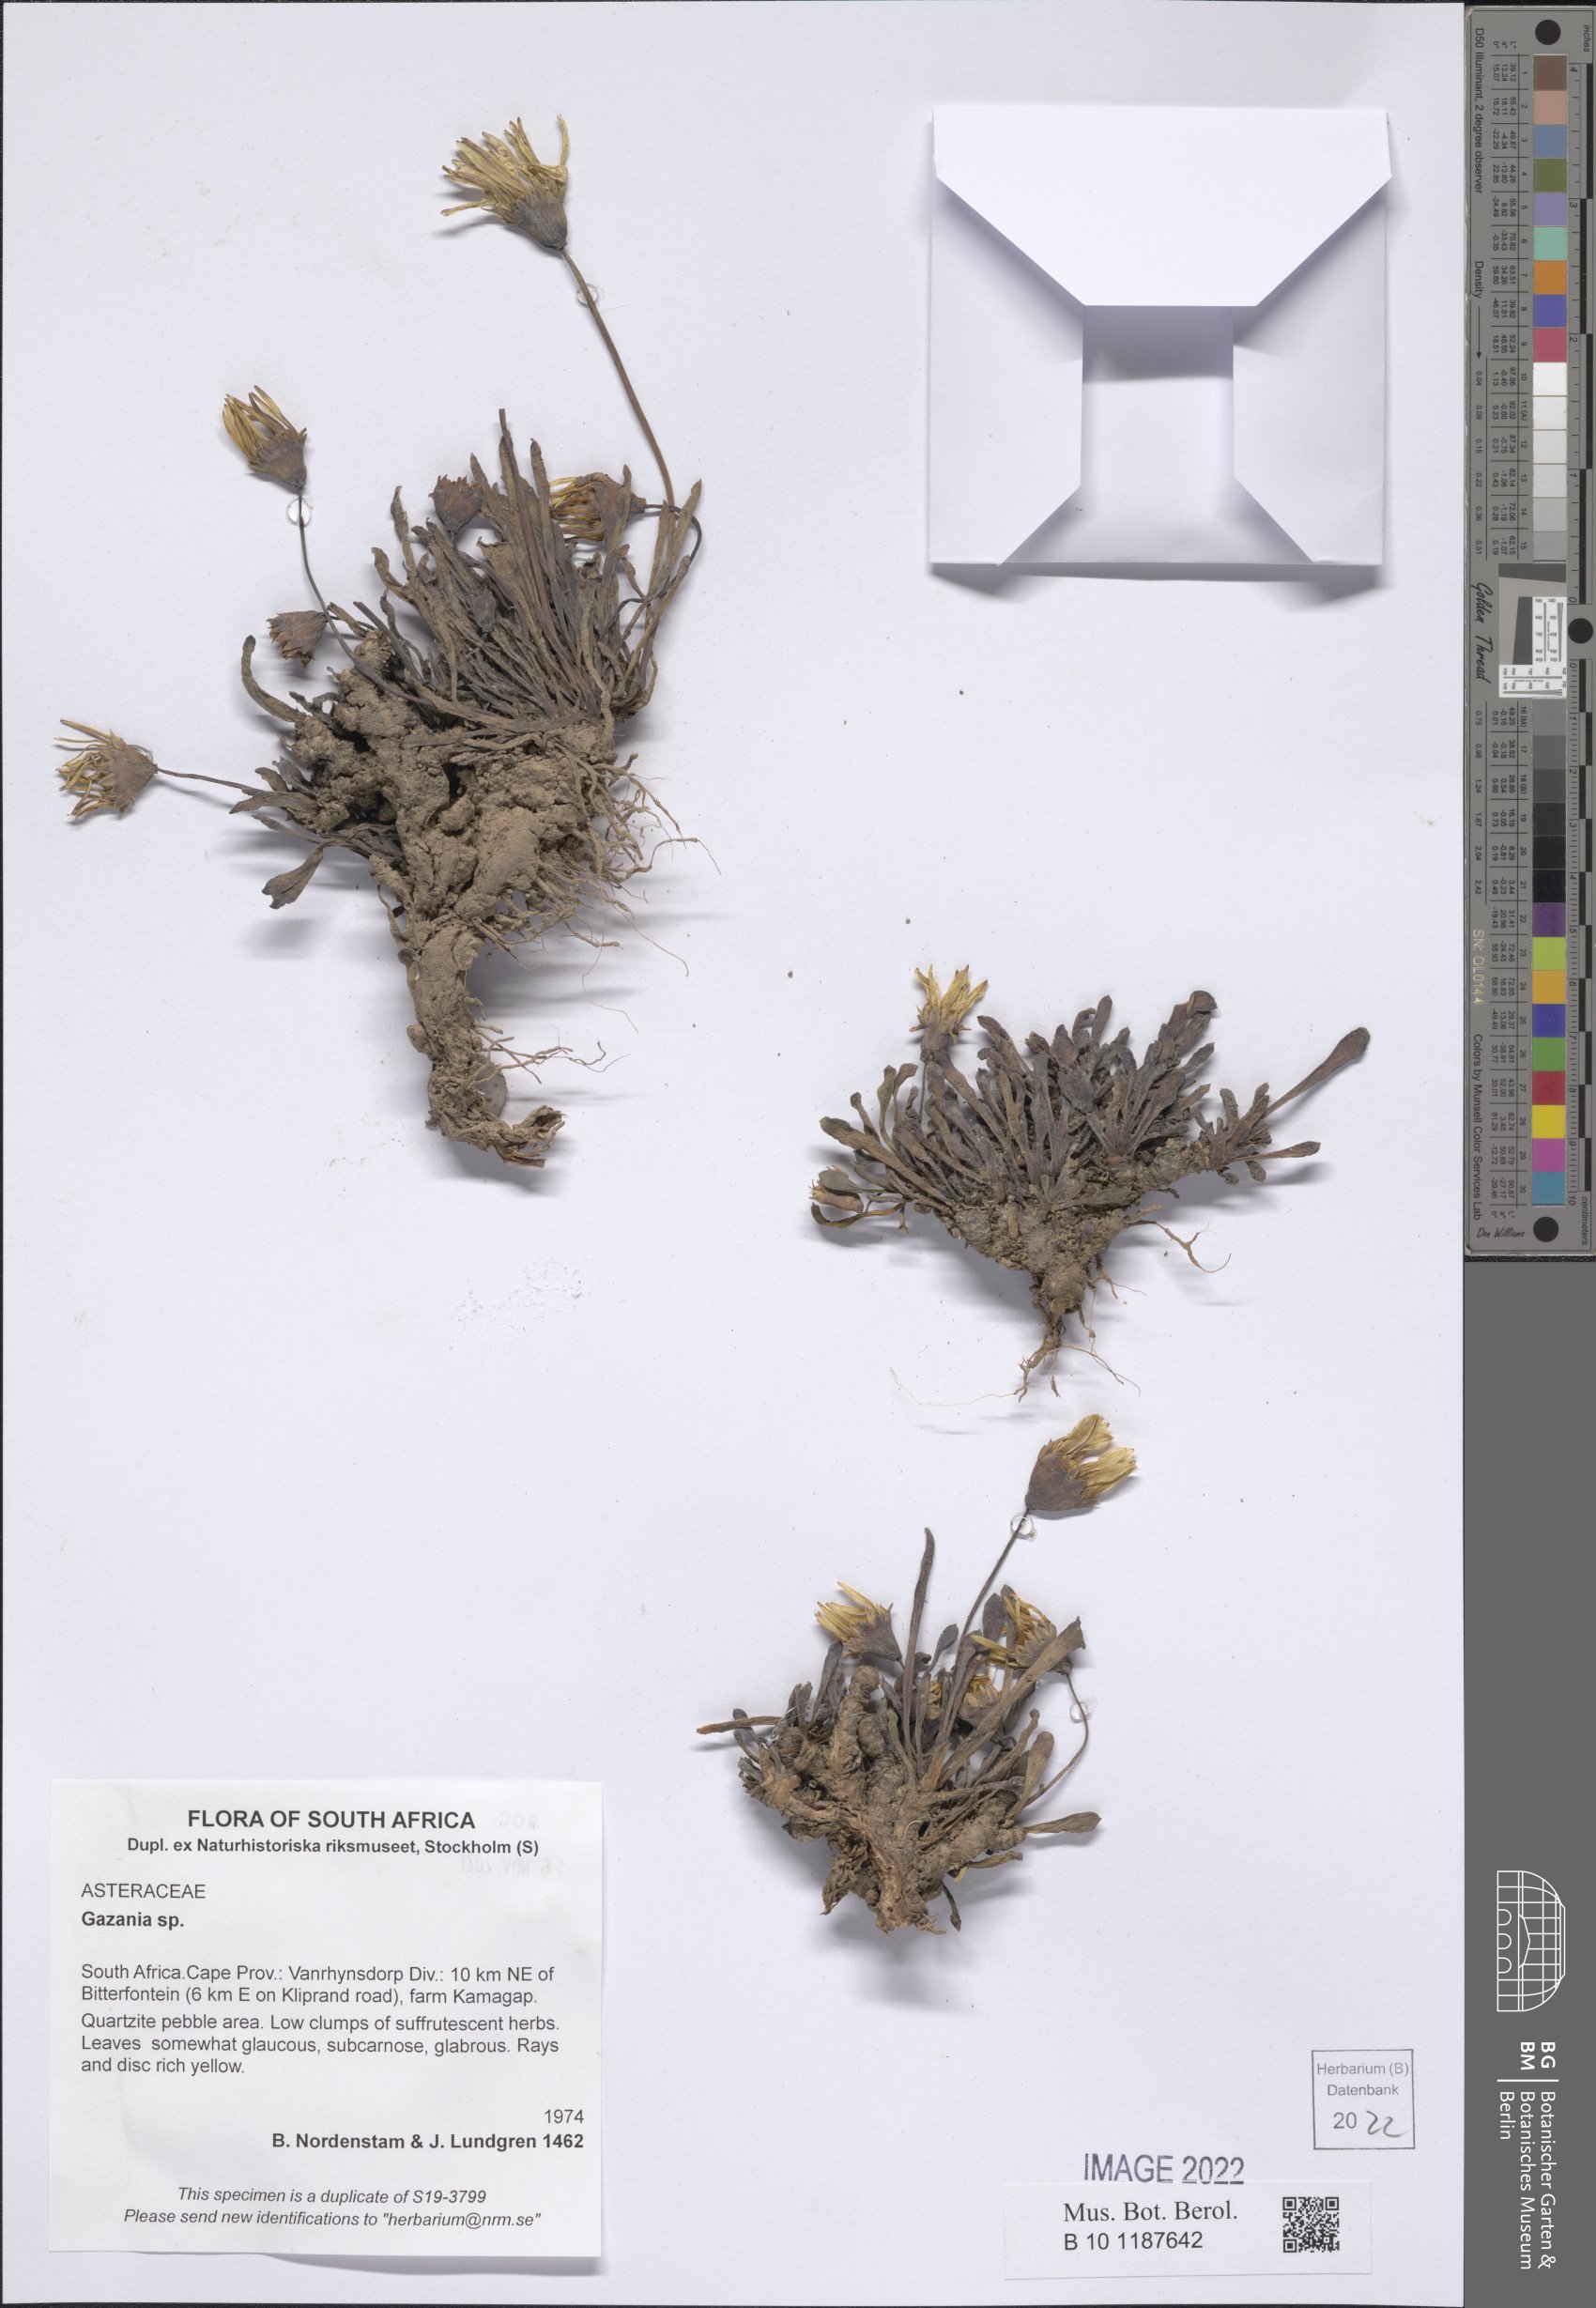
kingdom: Plantae
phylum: Tracheophyta
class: Magnoliopsida
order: Asterales
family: Asteraceae
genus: Gazania
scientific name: Gazania
